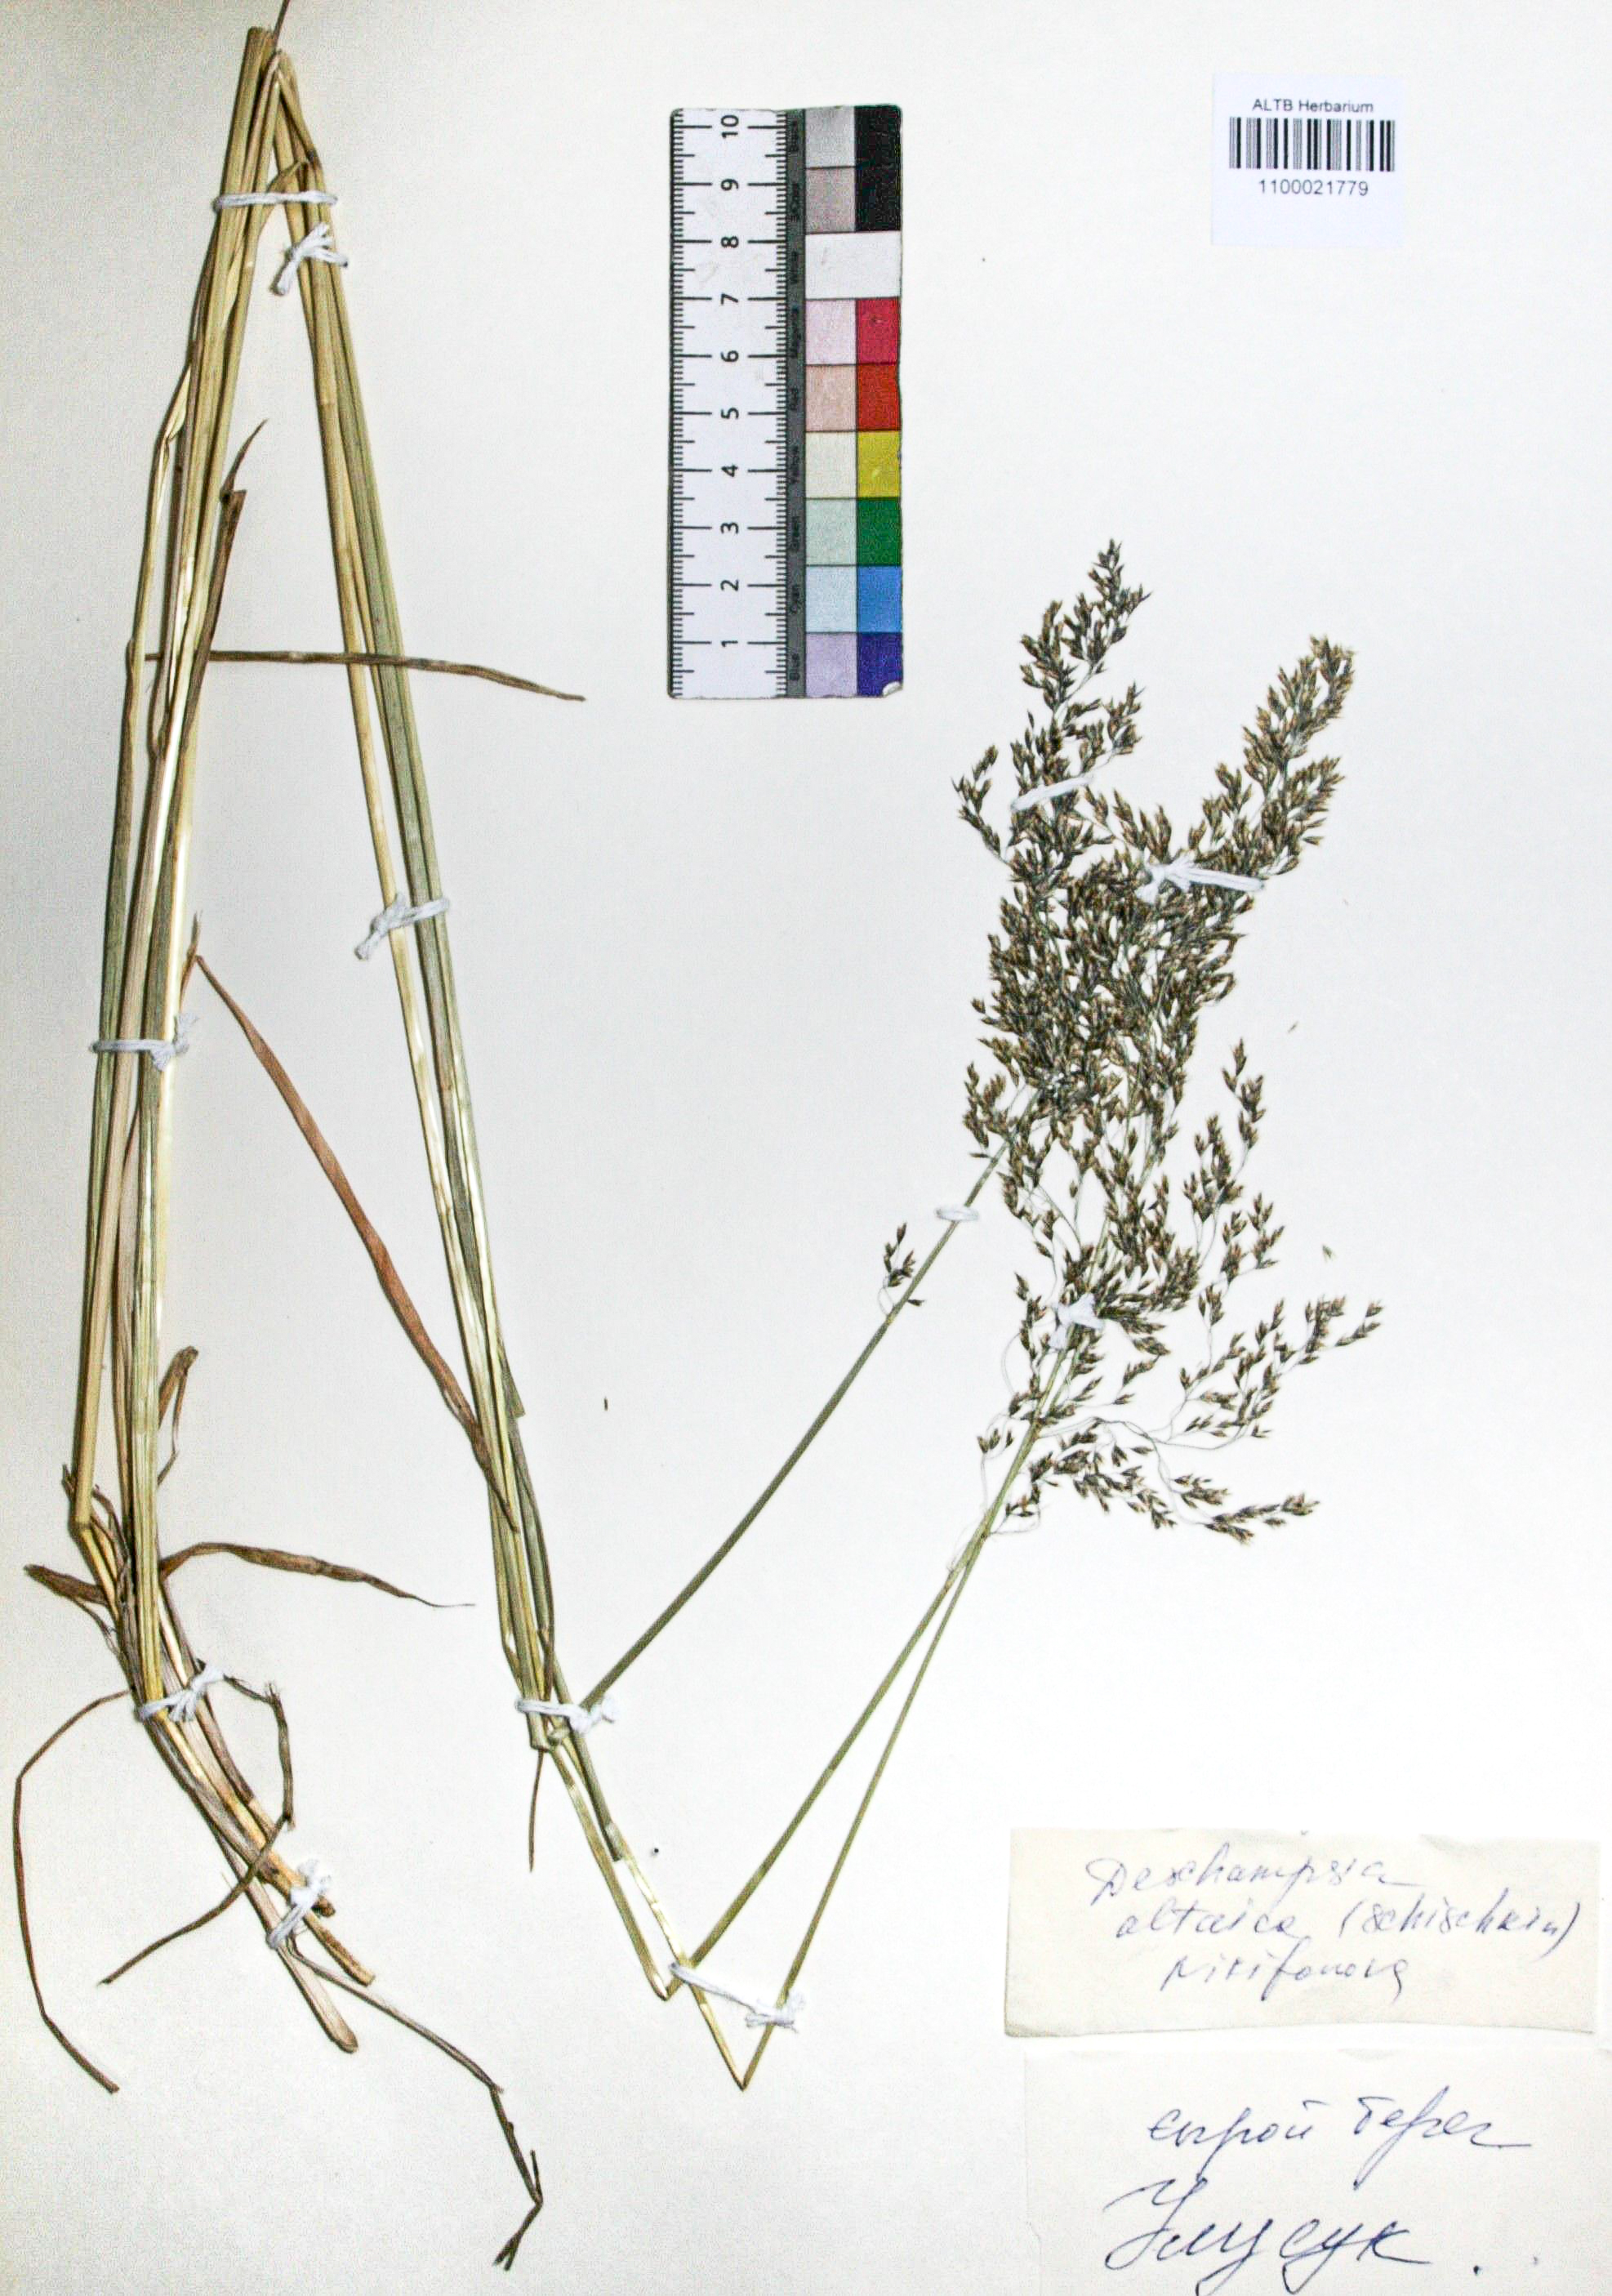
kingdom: Plantae
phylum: Tracheophyta
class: Liliopsida
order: Poales
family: Poaceae
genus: Deschampsia
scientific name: Deschampsia cespitosa
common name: Tufted hair-grass
